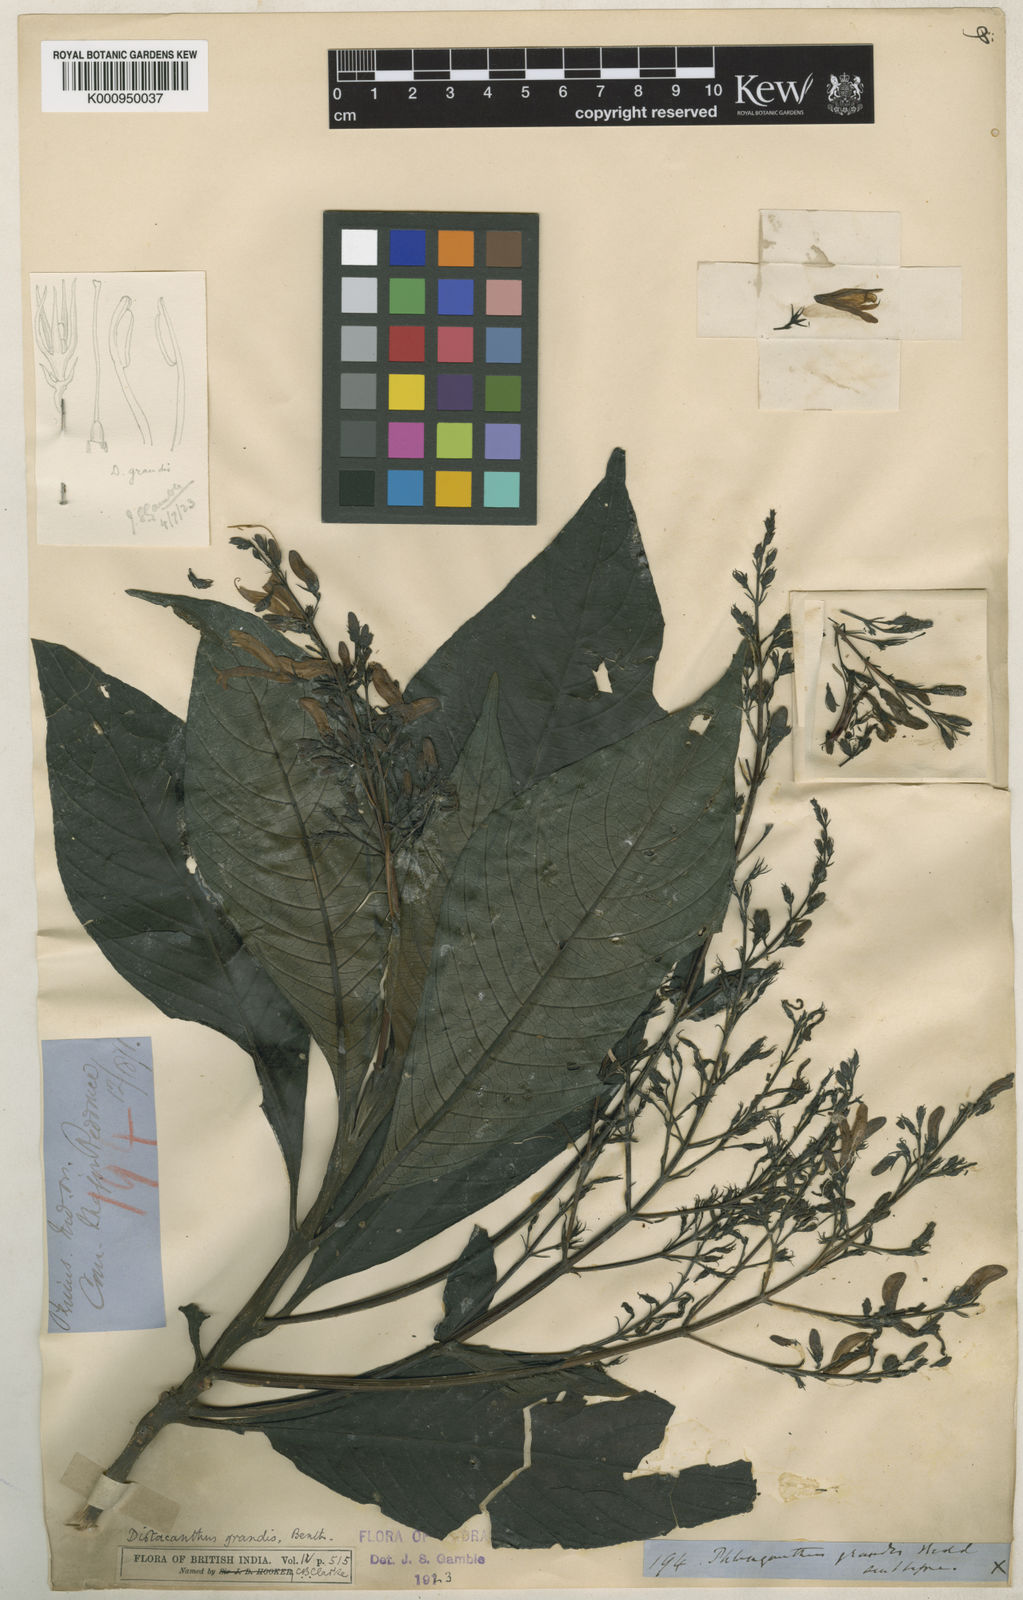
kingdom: Plantae
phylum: Tracheophyta
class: Magnoliopsida
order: Lamiales
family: Acanthaceae
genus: Phlogacanthus
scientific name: Phlogacanthus grandis
